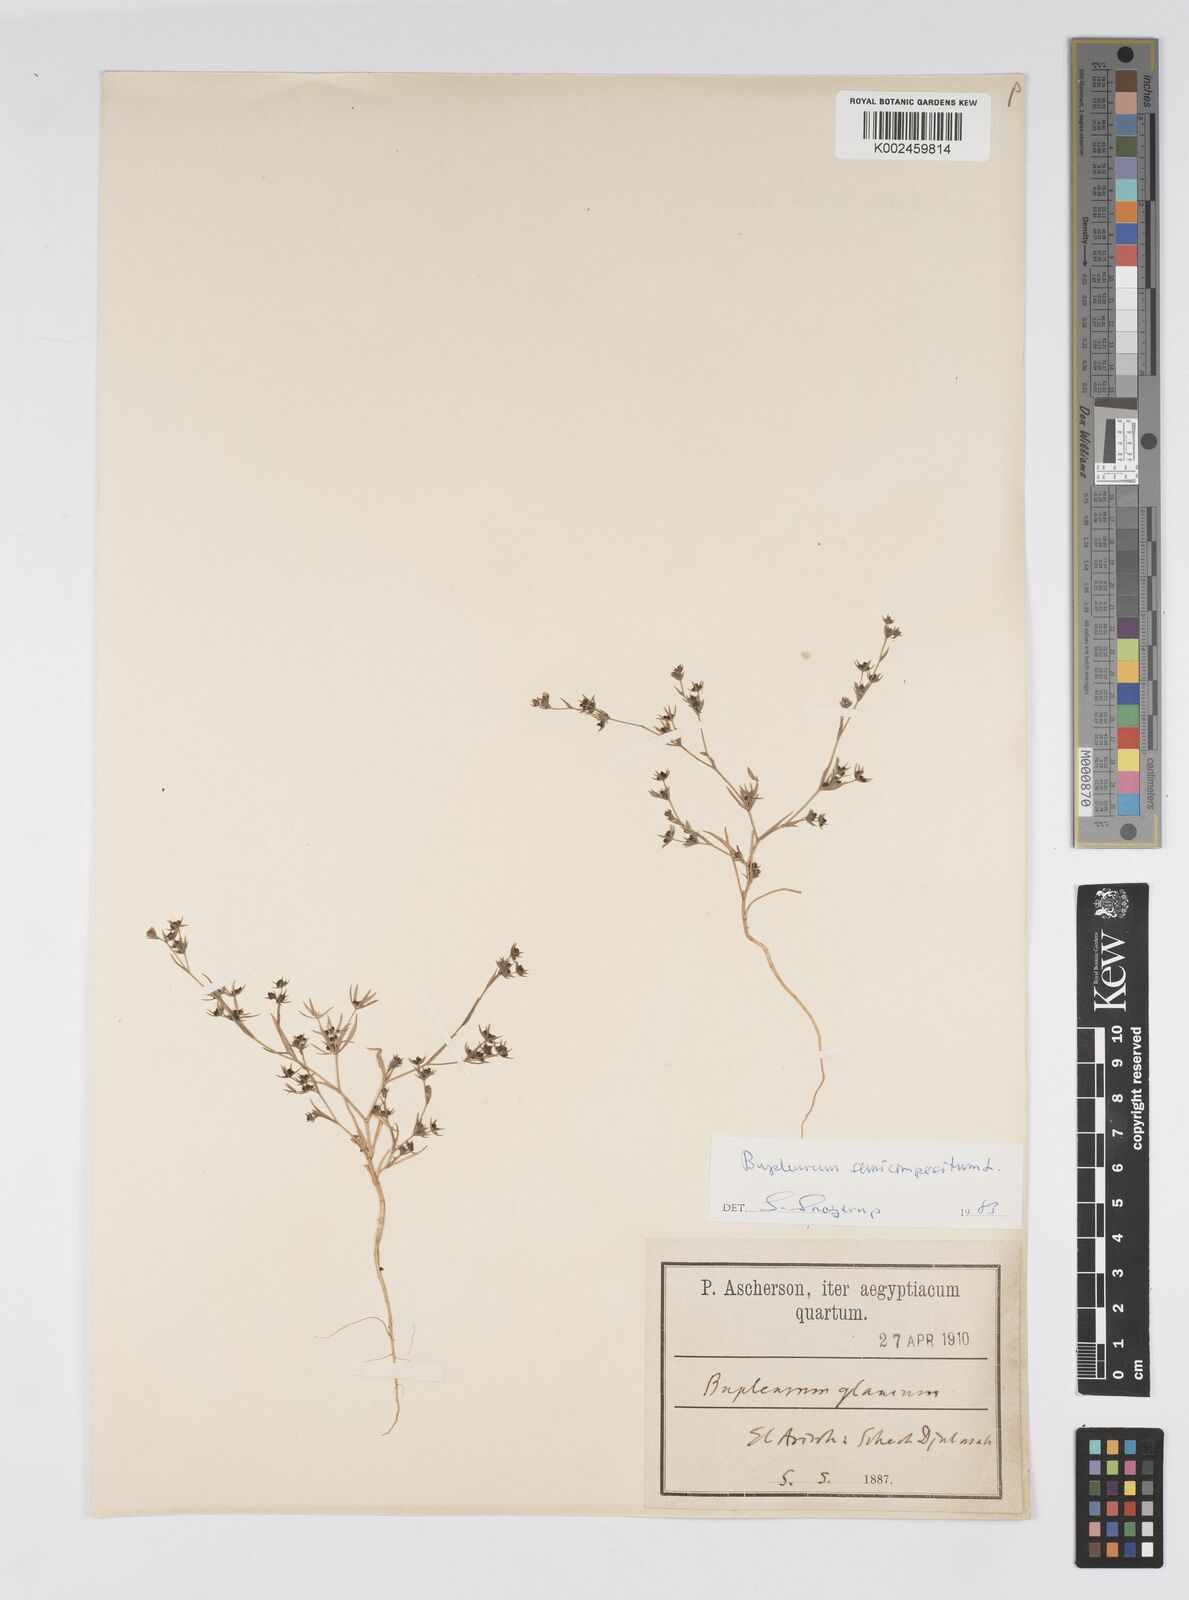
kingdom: Plantae
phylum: Tracheophyta
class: Magnoliopsida
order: Apiales
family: Apiaceae
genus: Bupleurum
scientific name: Bupleurum semicompositum
